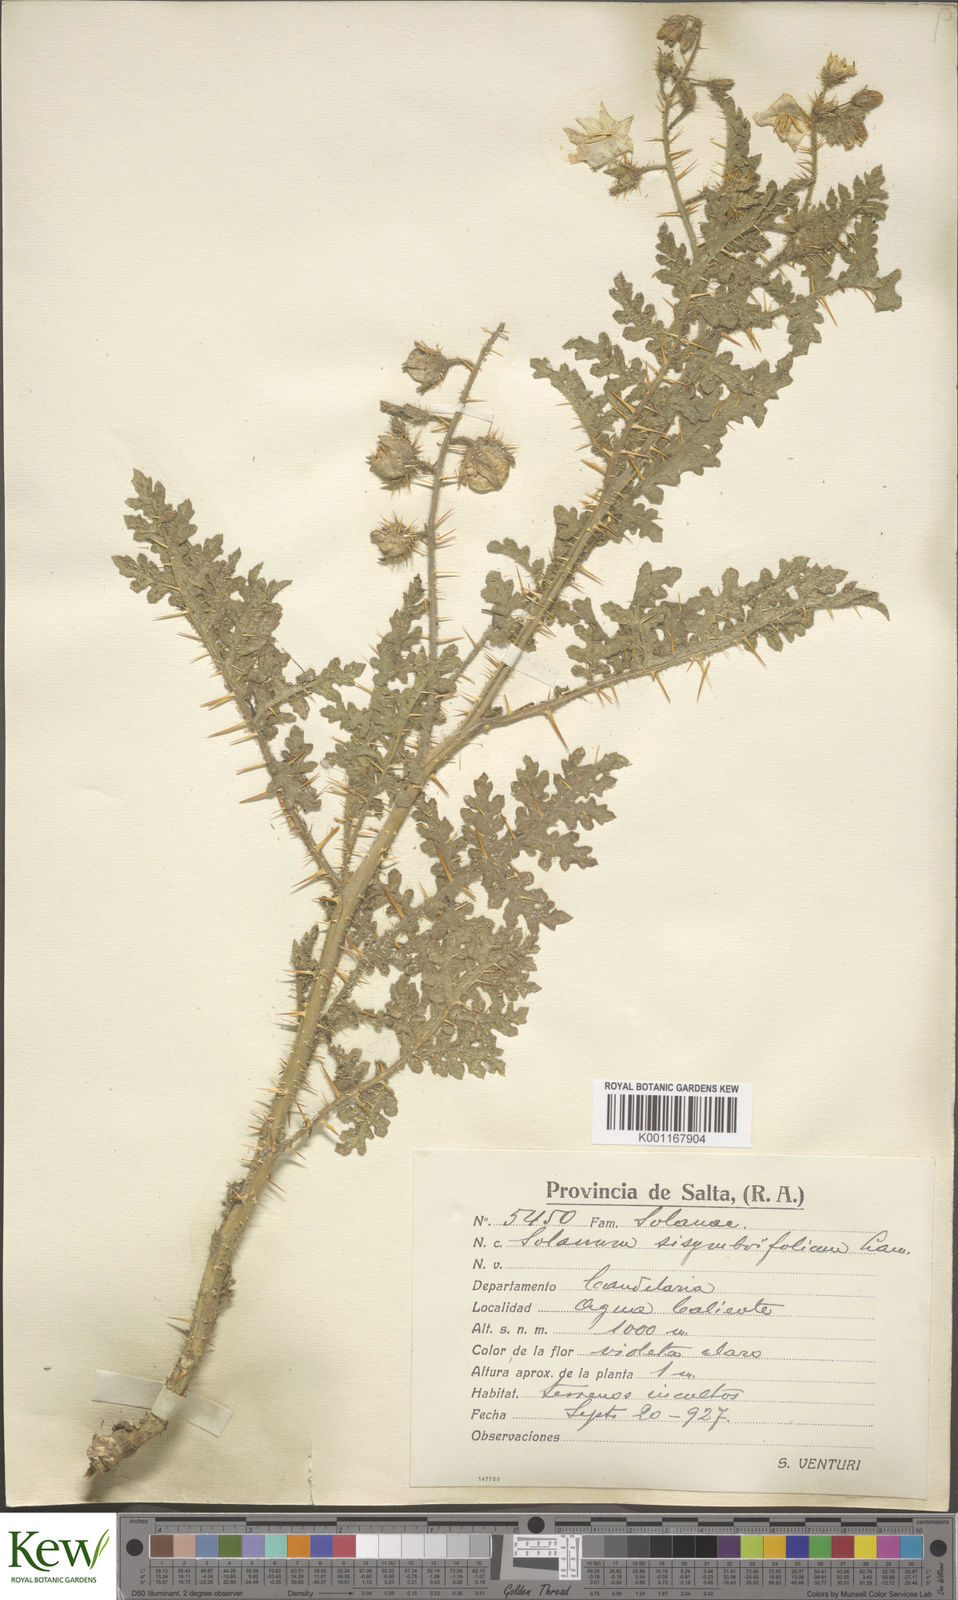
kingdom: Plantae
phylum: Tracheophyta
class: Magnoliopsida
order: Solanales
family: Solanaceae
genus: Solanum
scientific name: Solanum sisymbriifolium
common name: Red buffalo-bur
